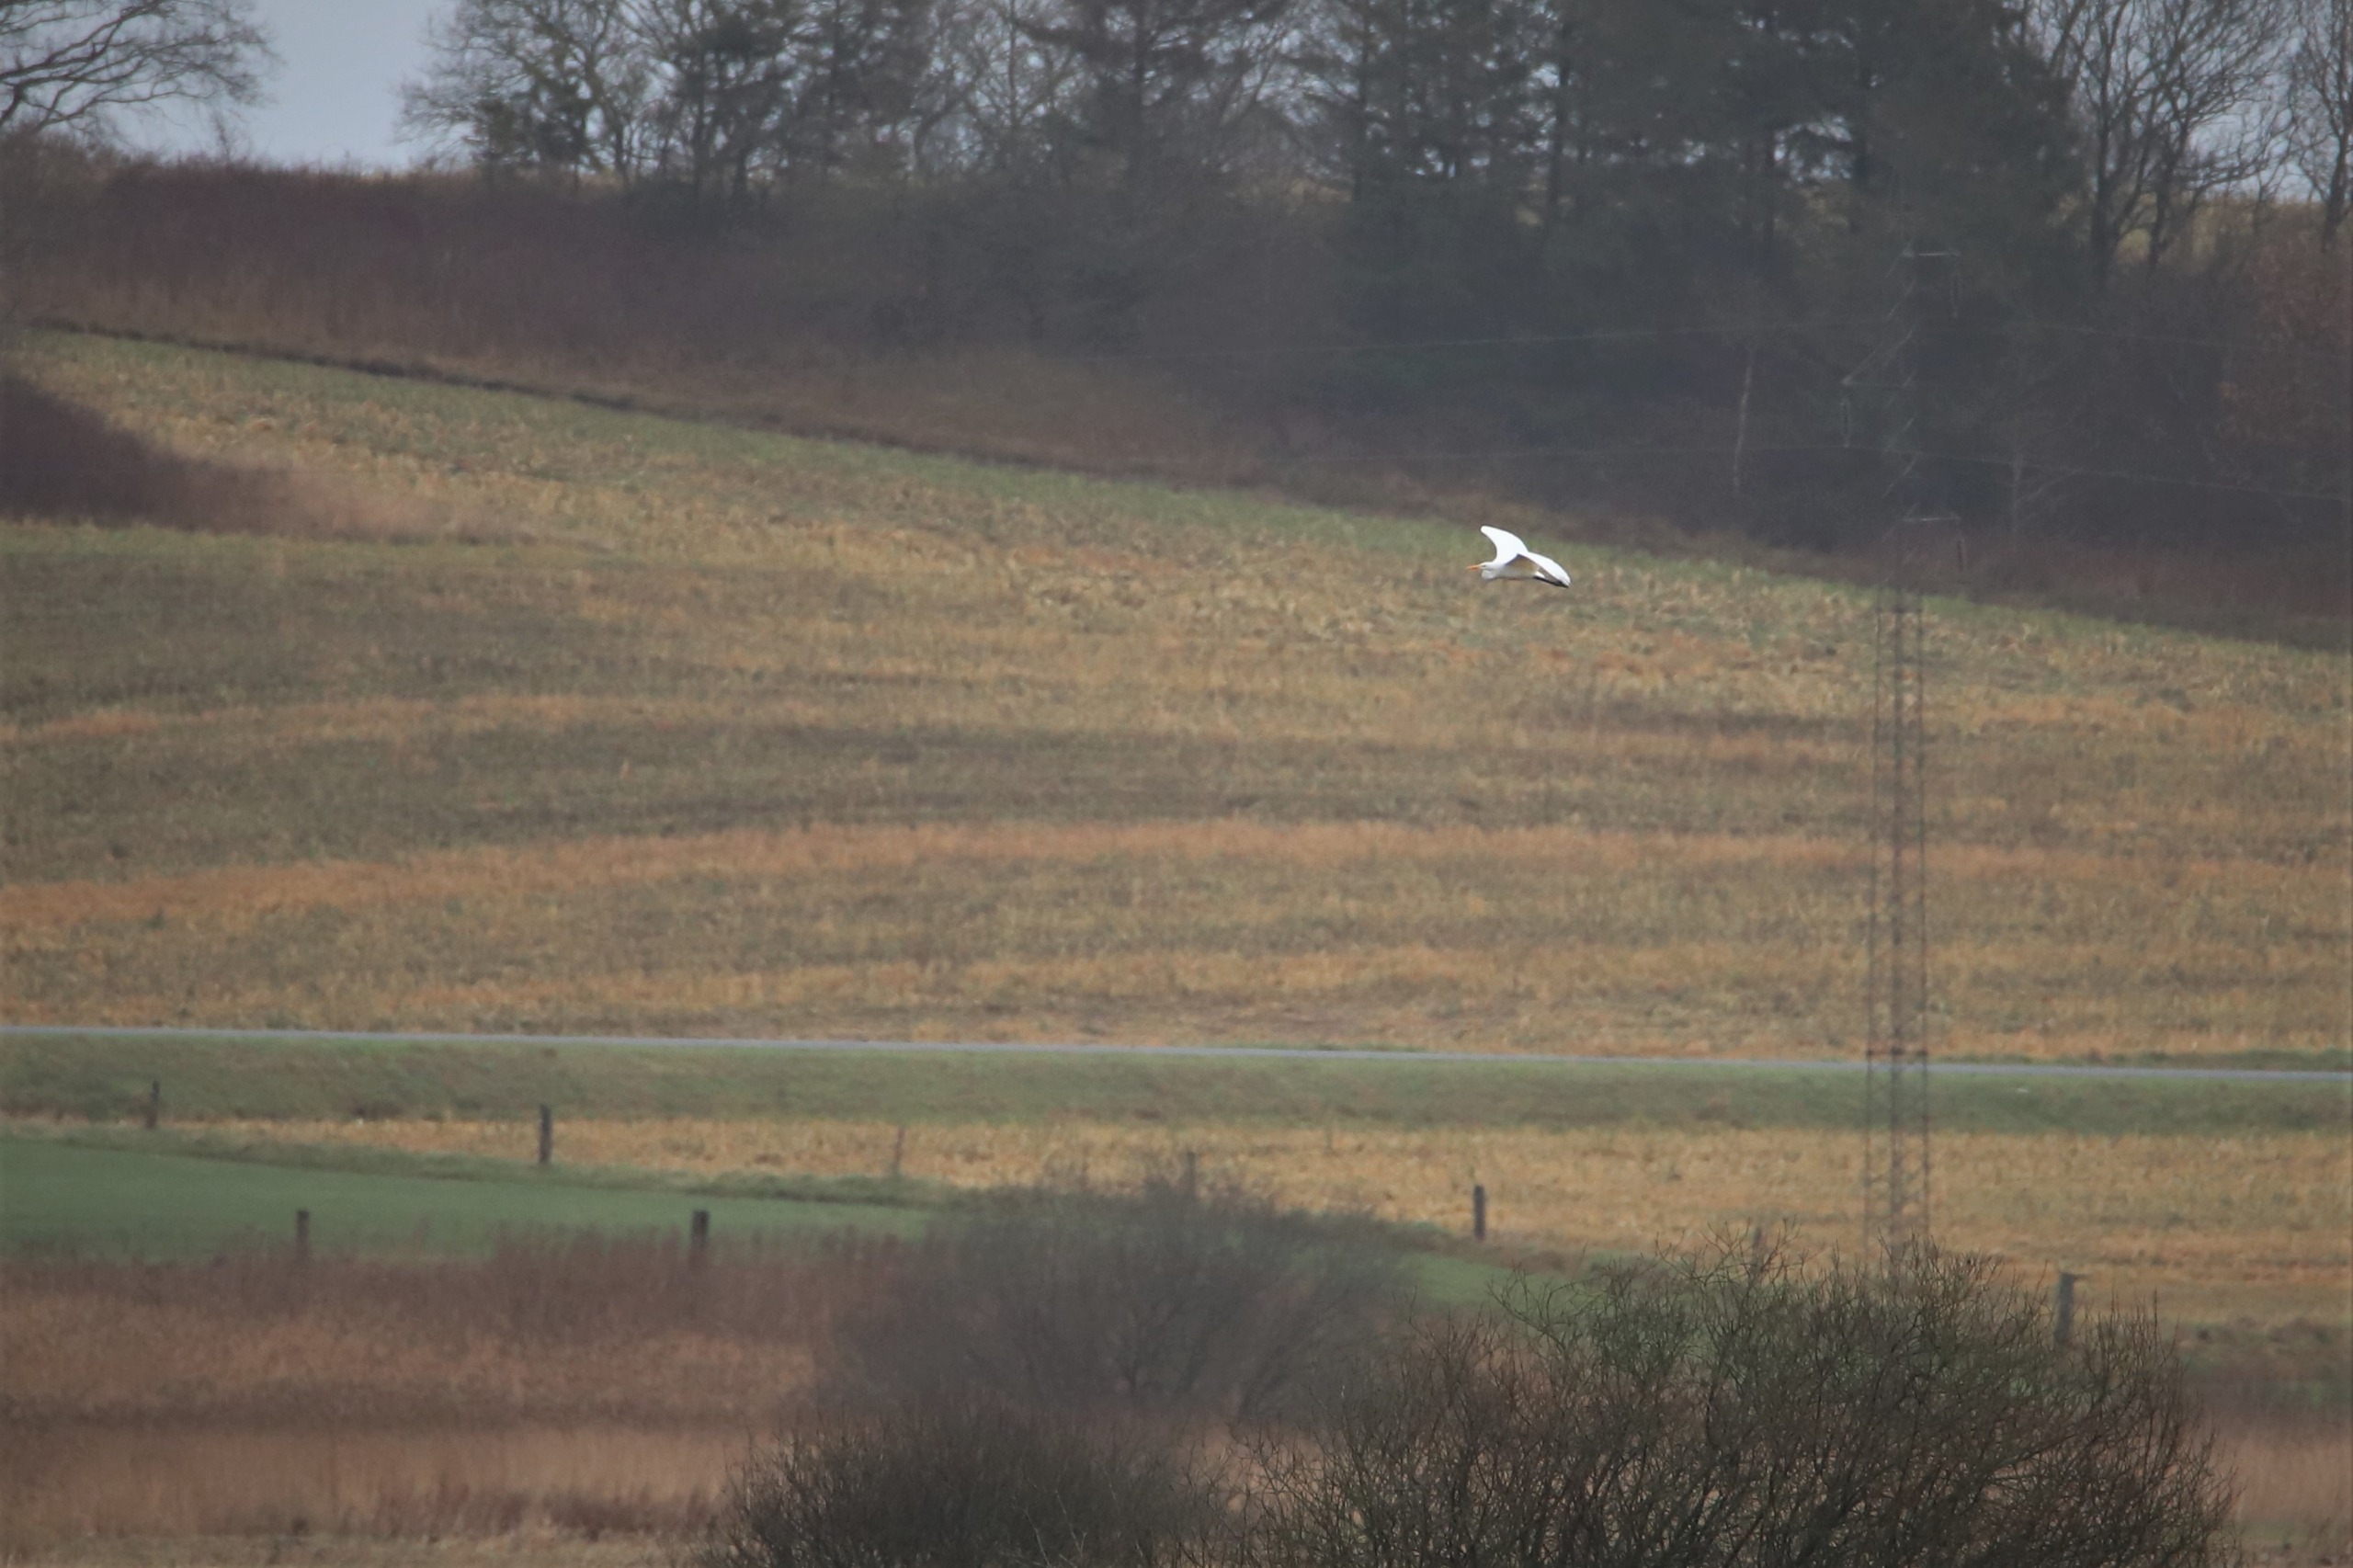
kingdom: Animalia
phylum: Chordata
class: Aves
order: Pelecaniformes
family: Ardeidae
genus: Ardea
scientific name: Ardea alba
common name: Sølvhejre
